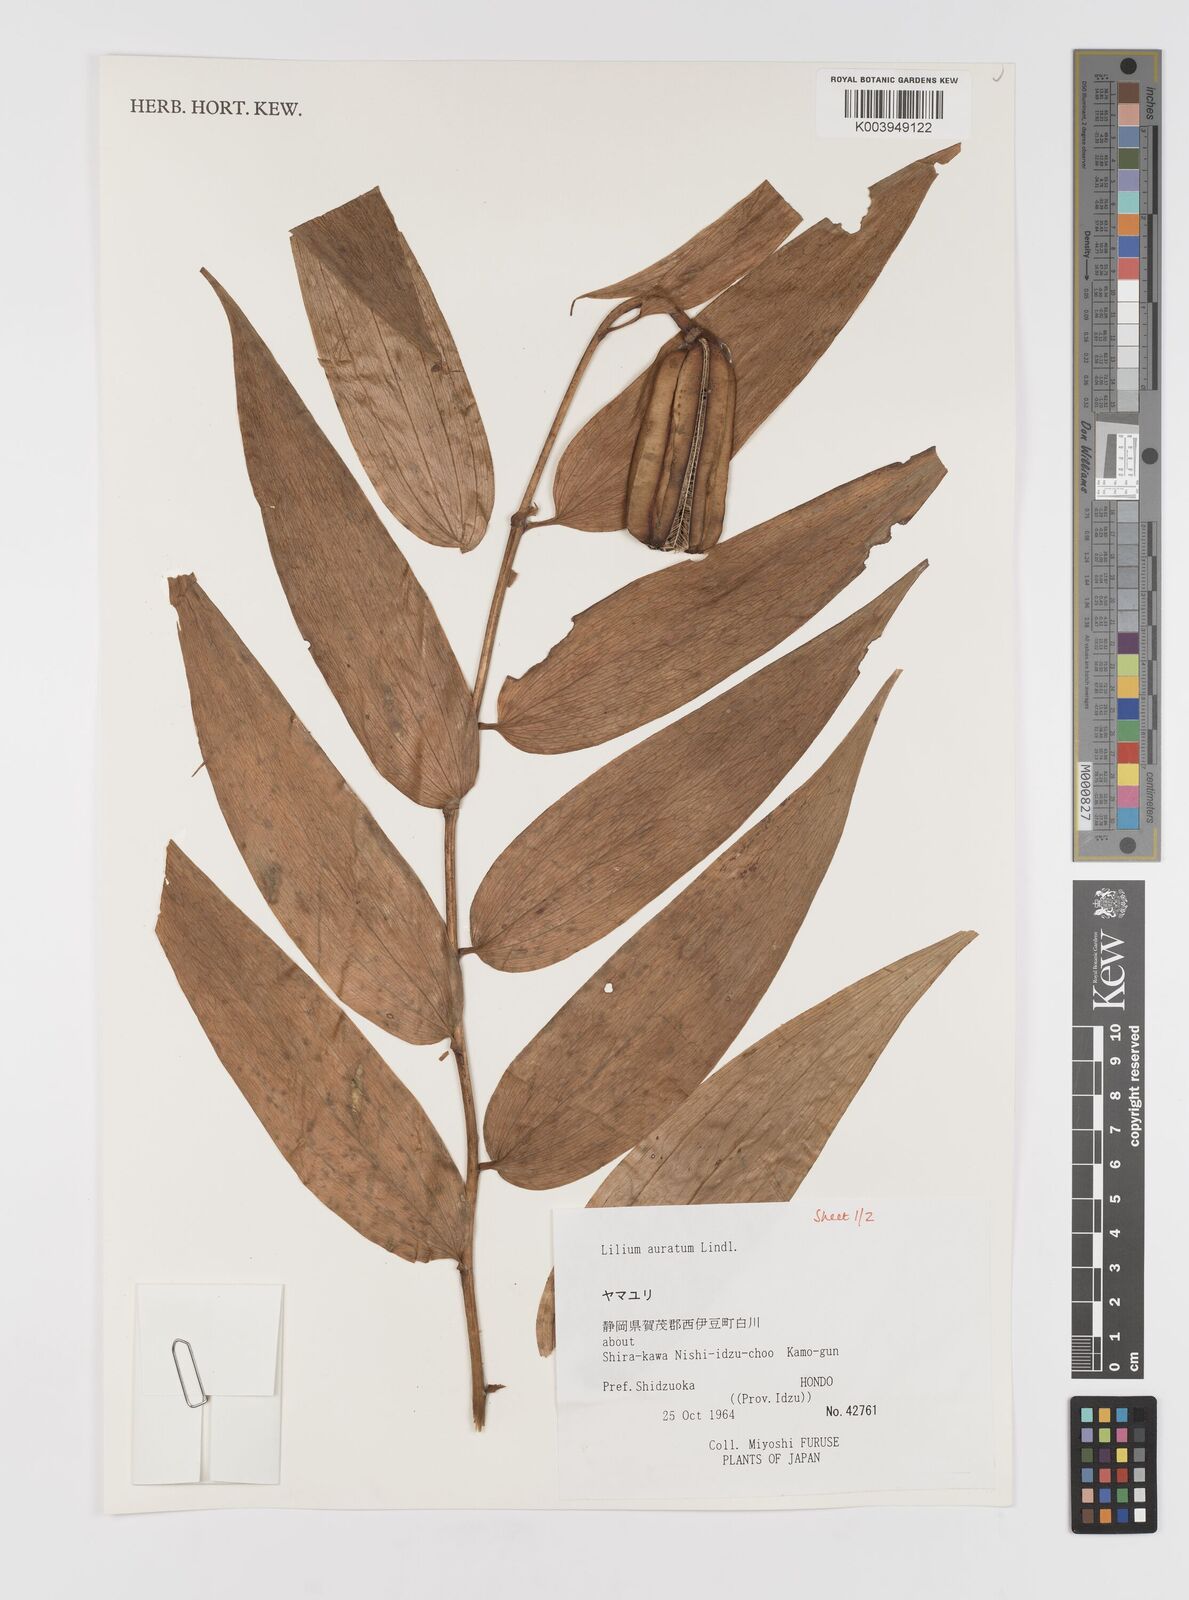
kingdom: Plantae
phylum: Tracheophyta
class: Liliopsida
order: Liliales
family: Liliaceae
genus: Lilium
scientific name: Lilium auratum
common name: Golden-ray lily
